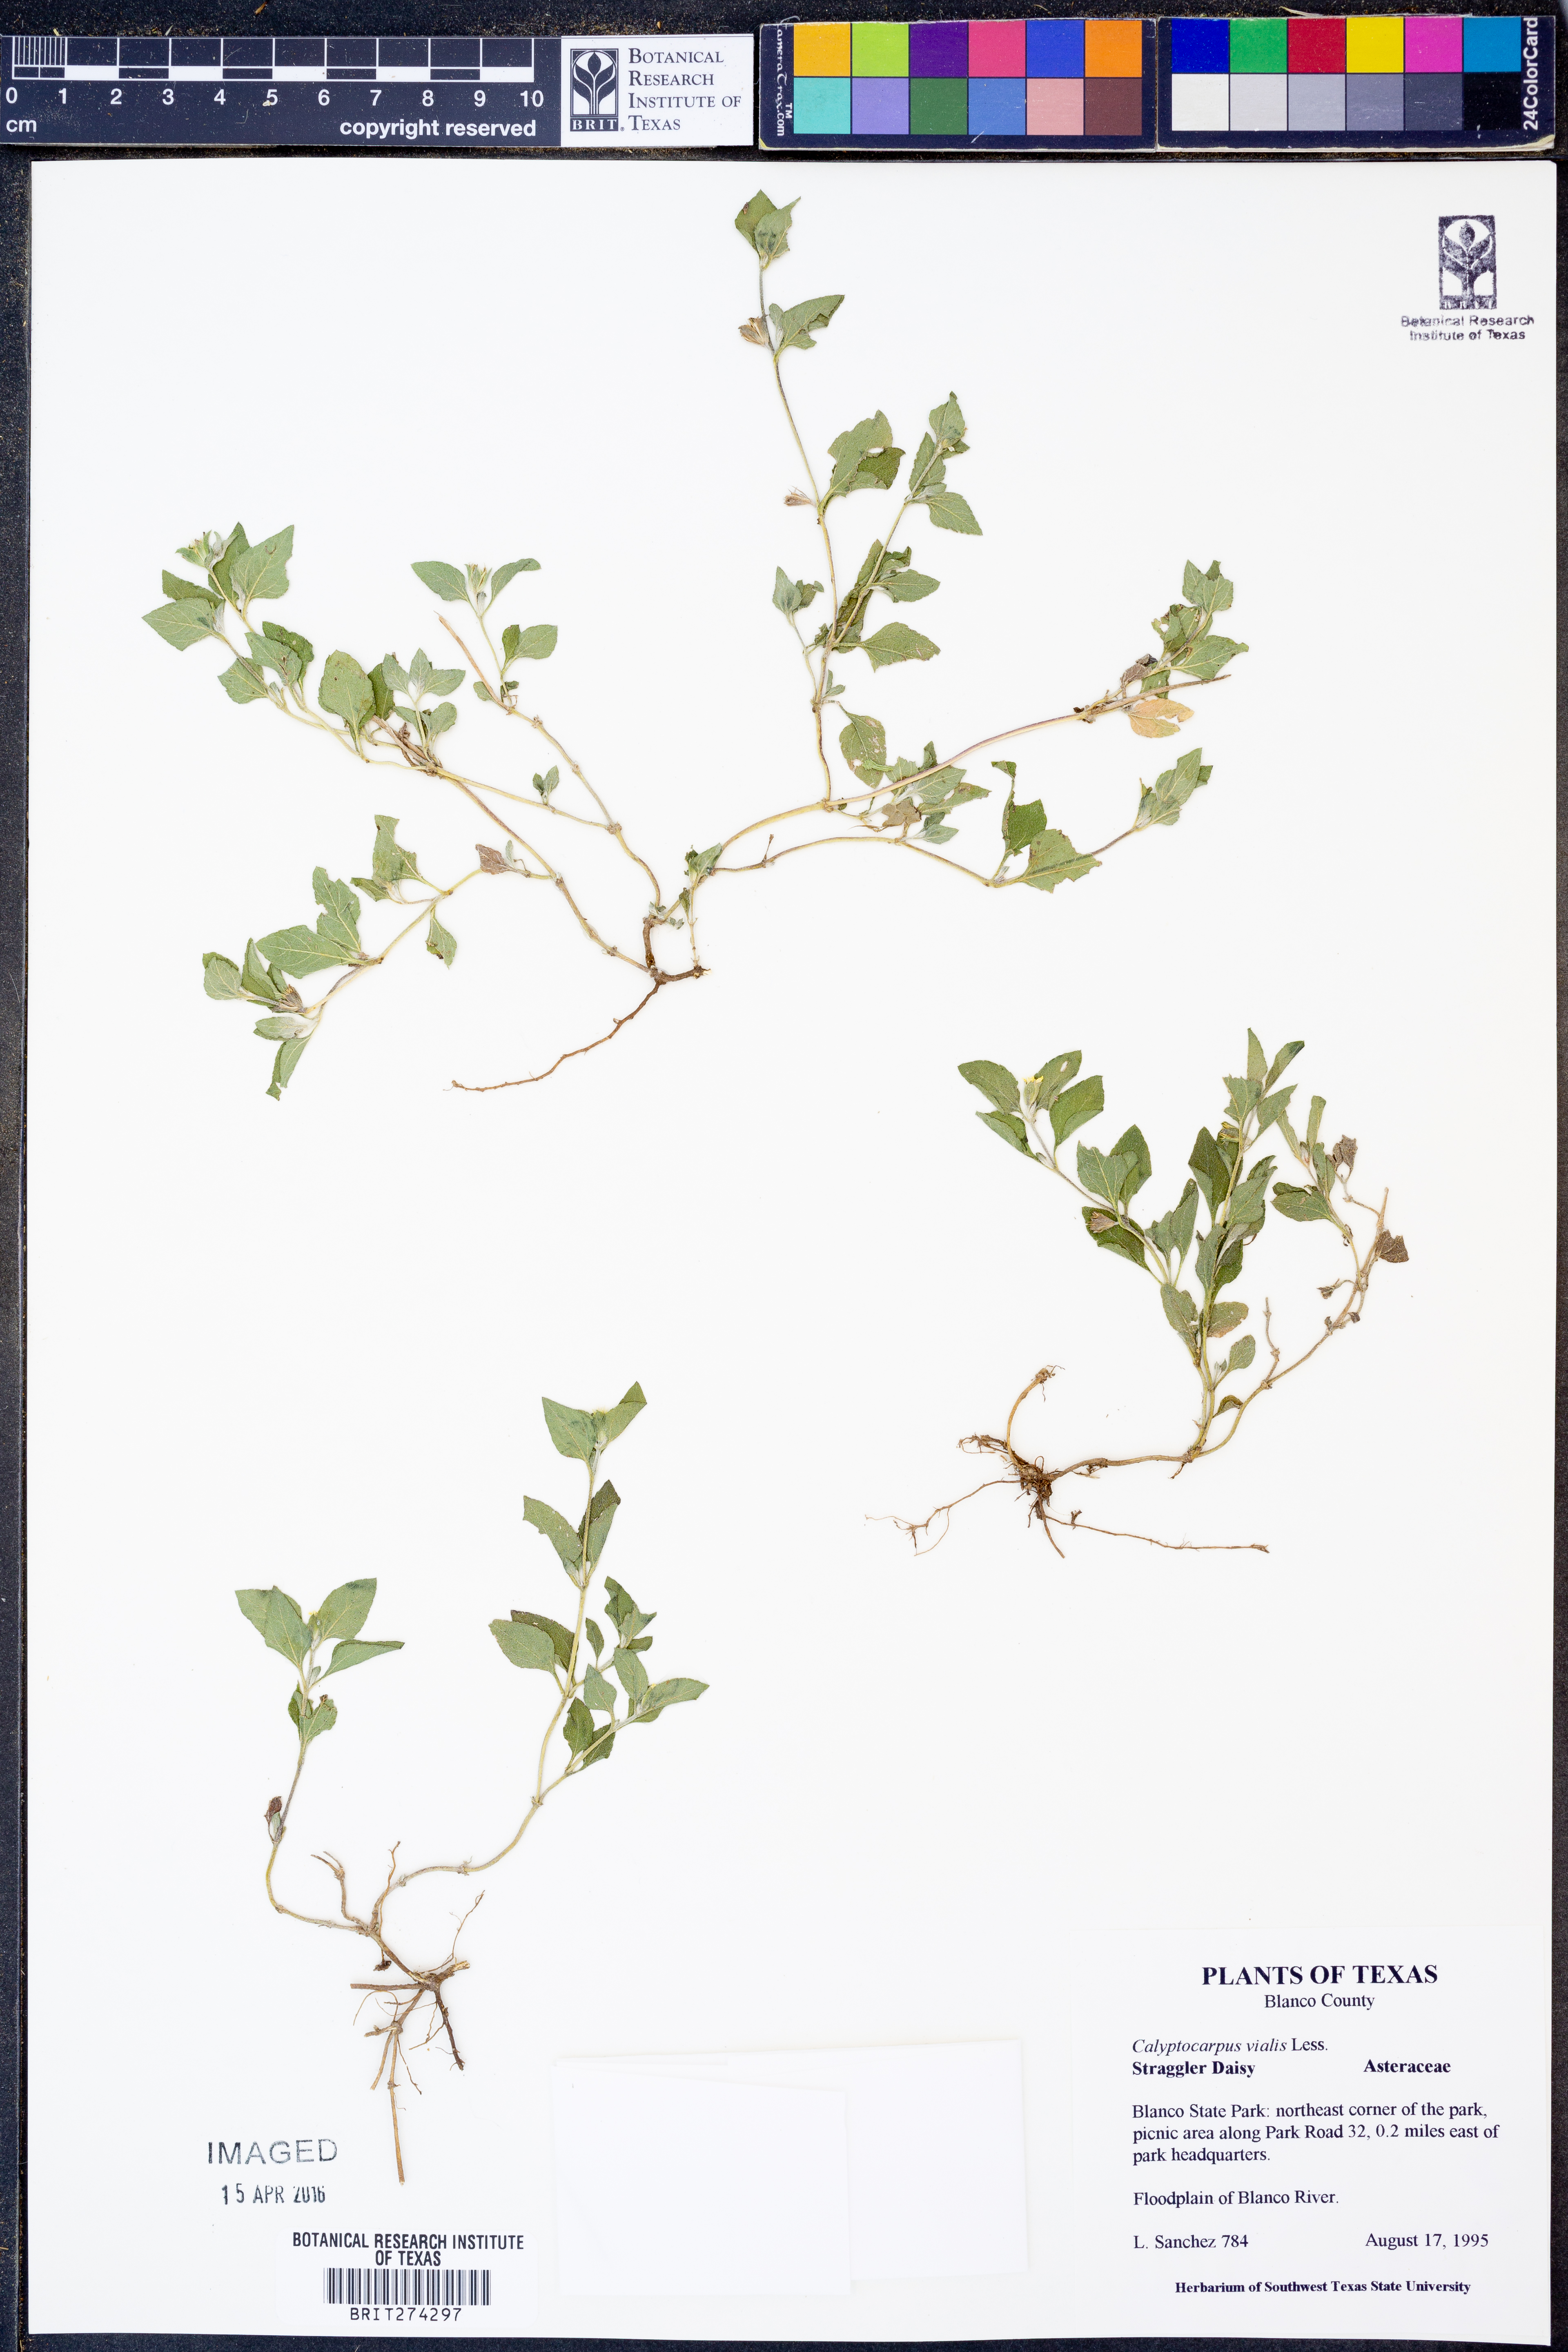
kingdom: Plantae
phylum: Tracheophyta
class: Magnoliopsida
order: Asterales
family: Asteraceae
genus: Calyptocarpus
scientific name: Calyptocarpus vialis
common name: Straggler daisy
